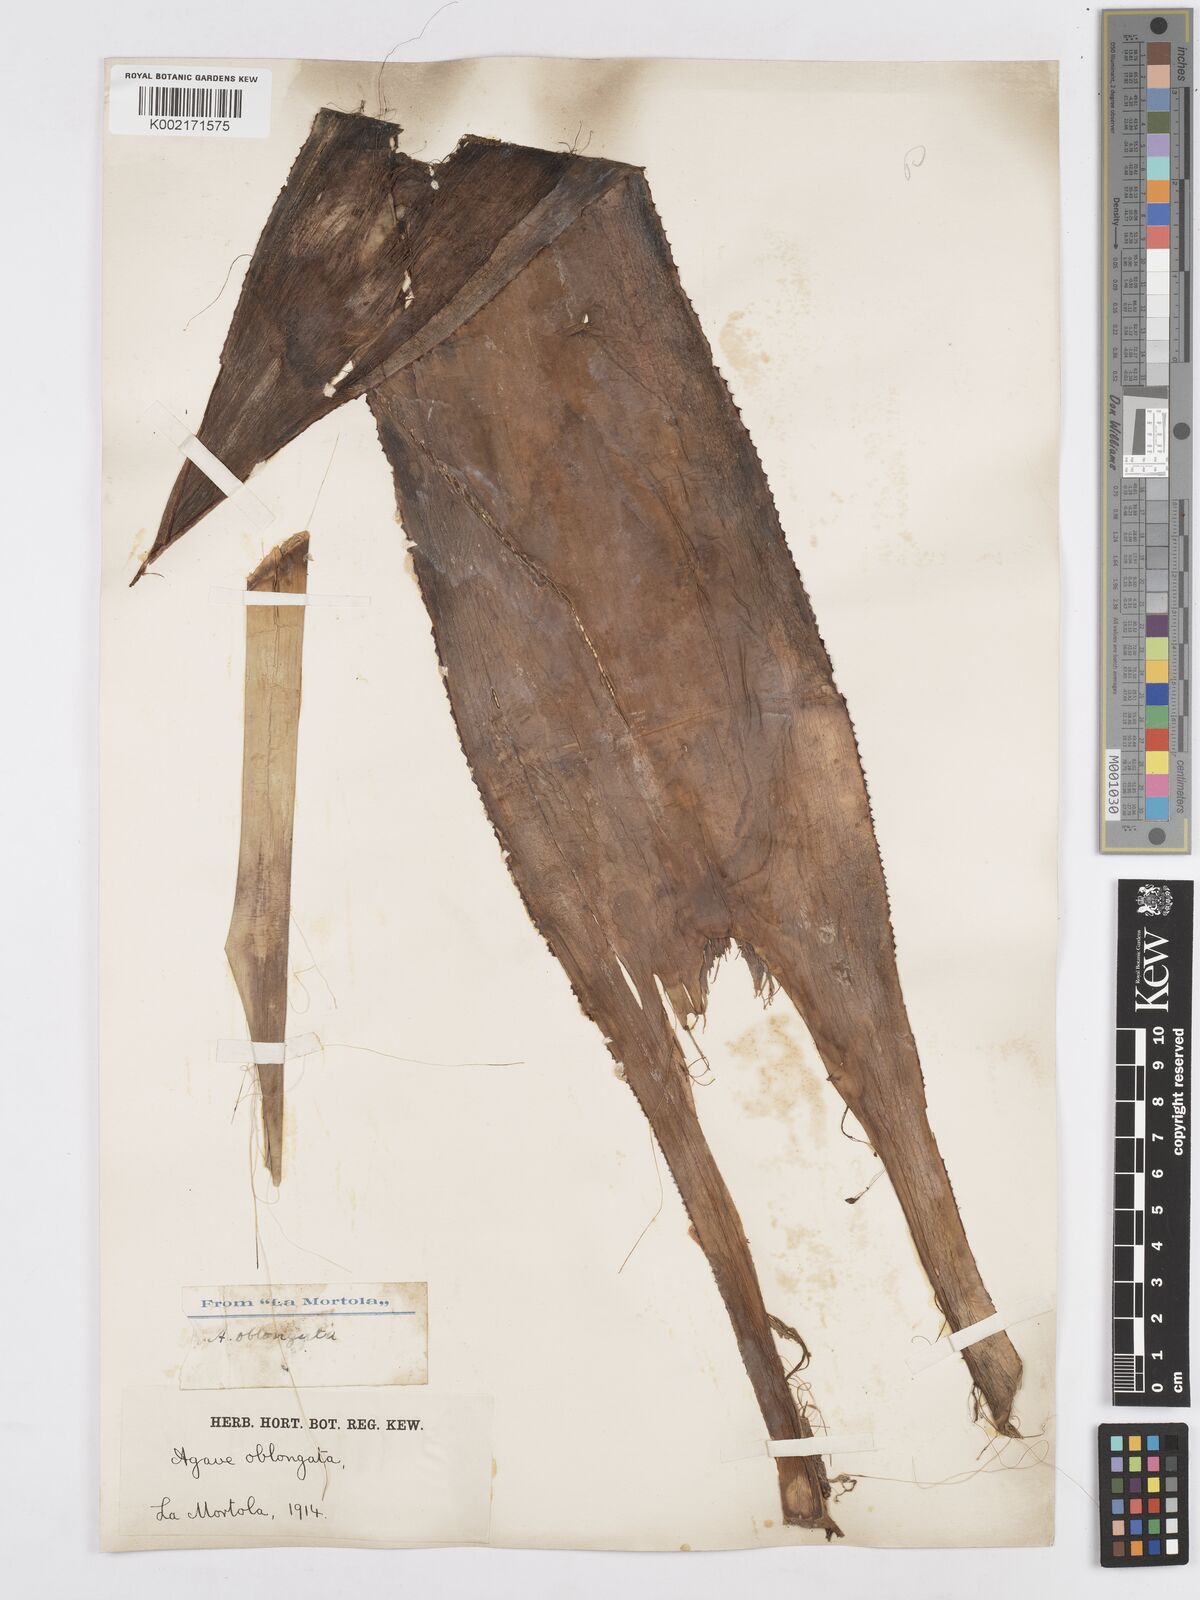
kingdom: Plantae
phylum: Tracheophyta
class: Liliopsida
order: Asparagales
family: Asparagaceae
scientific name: Asparagaceae
